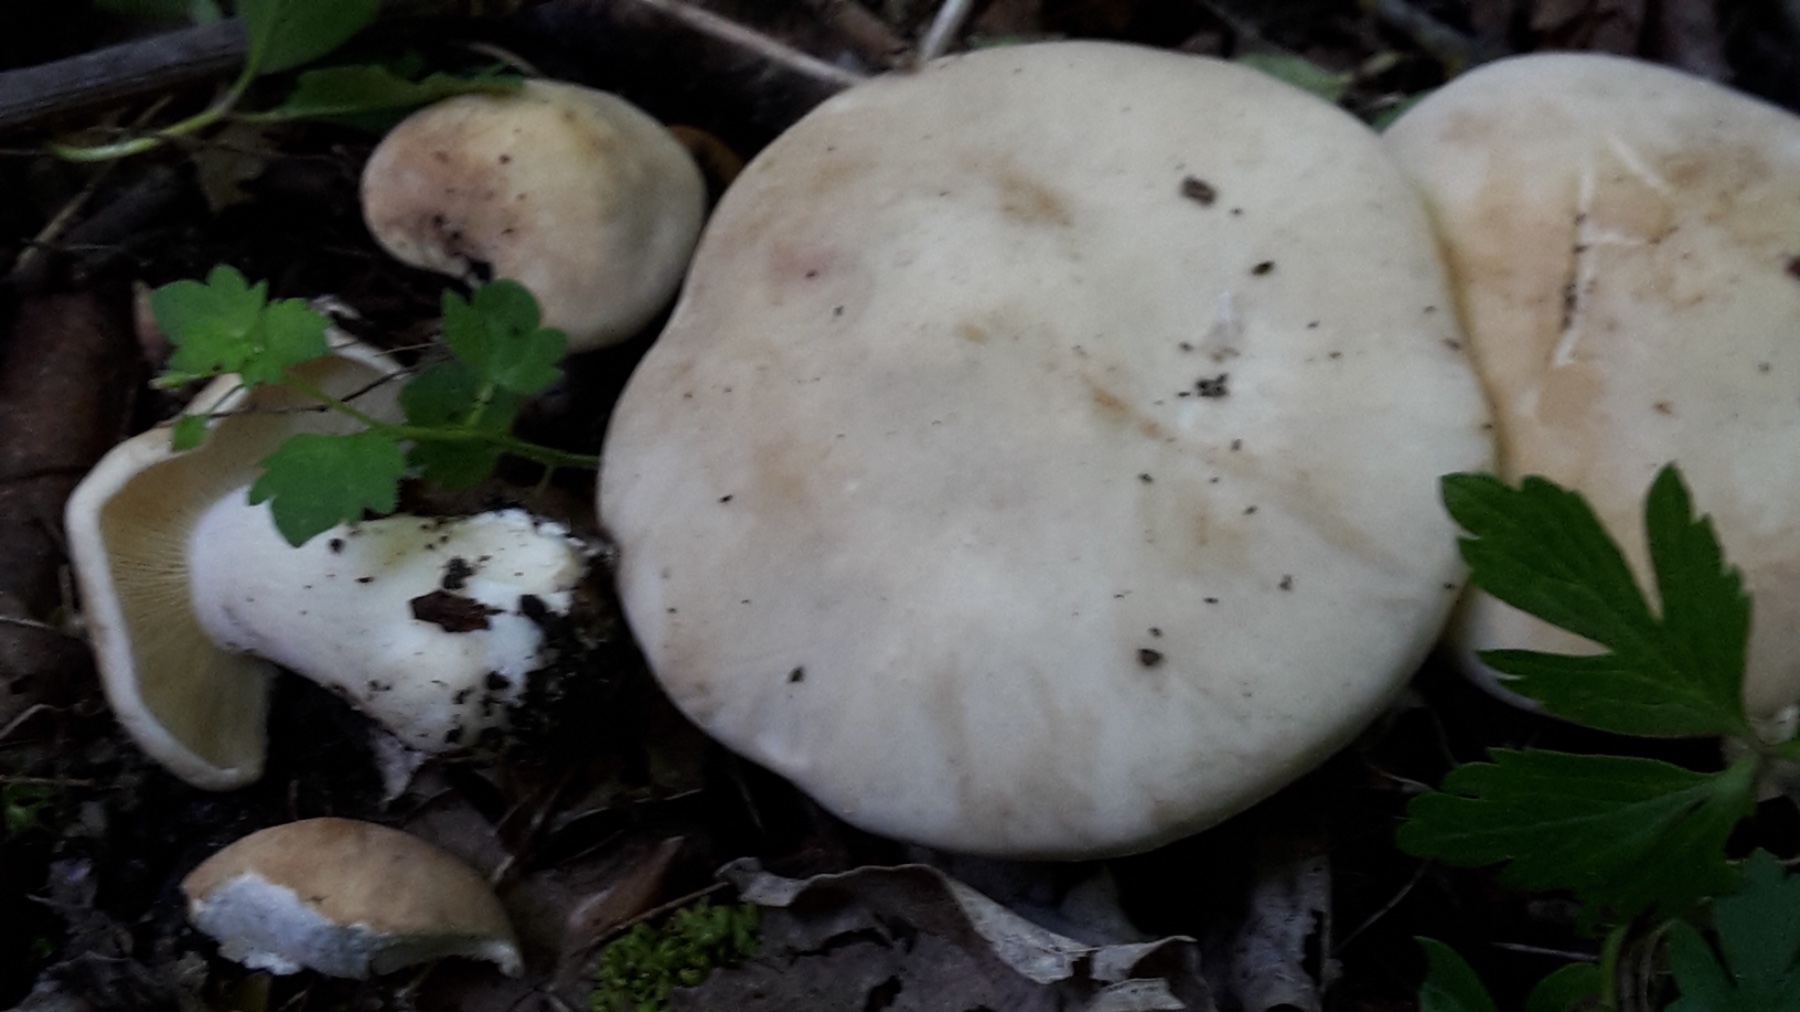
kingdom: Fungi
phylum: Basidiomycota
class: Agaricomycetes
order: Agaricales
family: Lyophyllaceae
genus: Calocybe
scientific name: Calocybe gambosa
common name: vårmusseron
